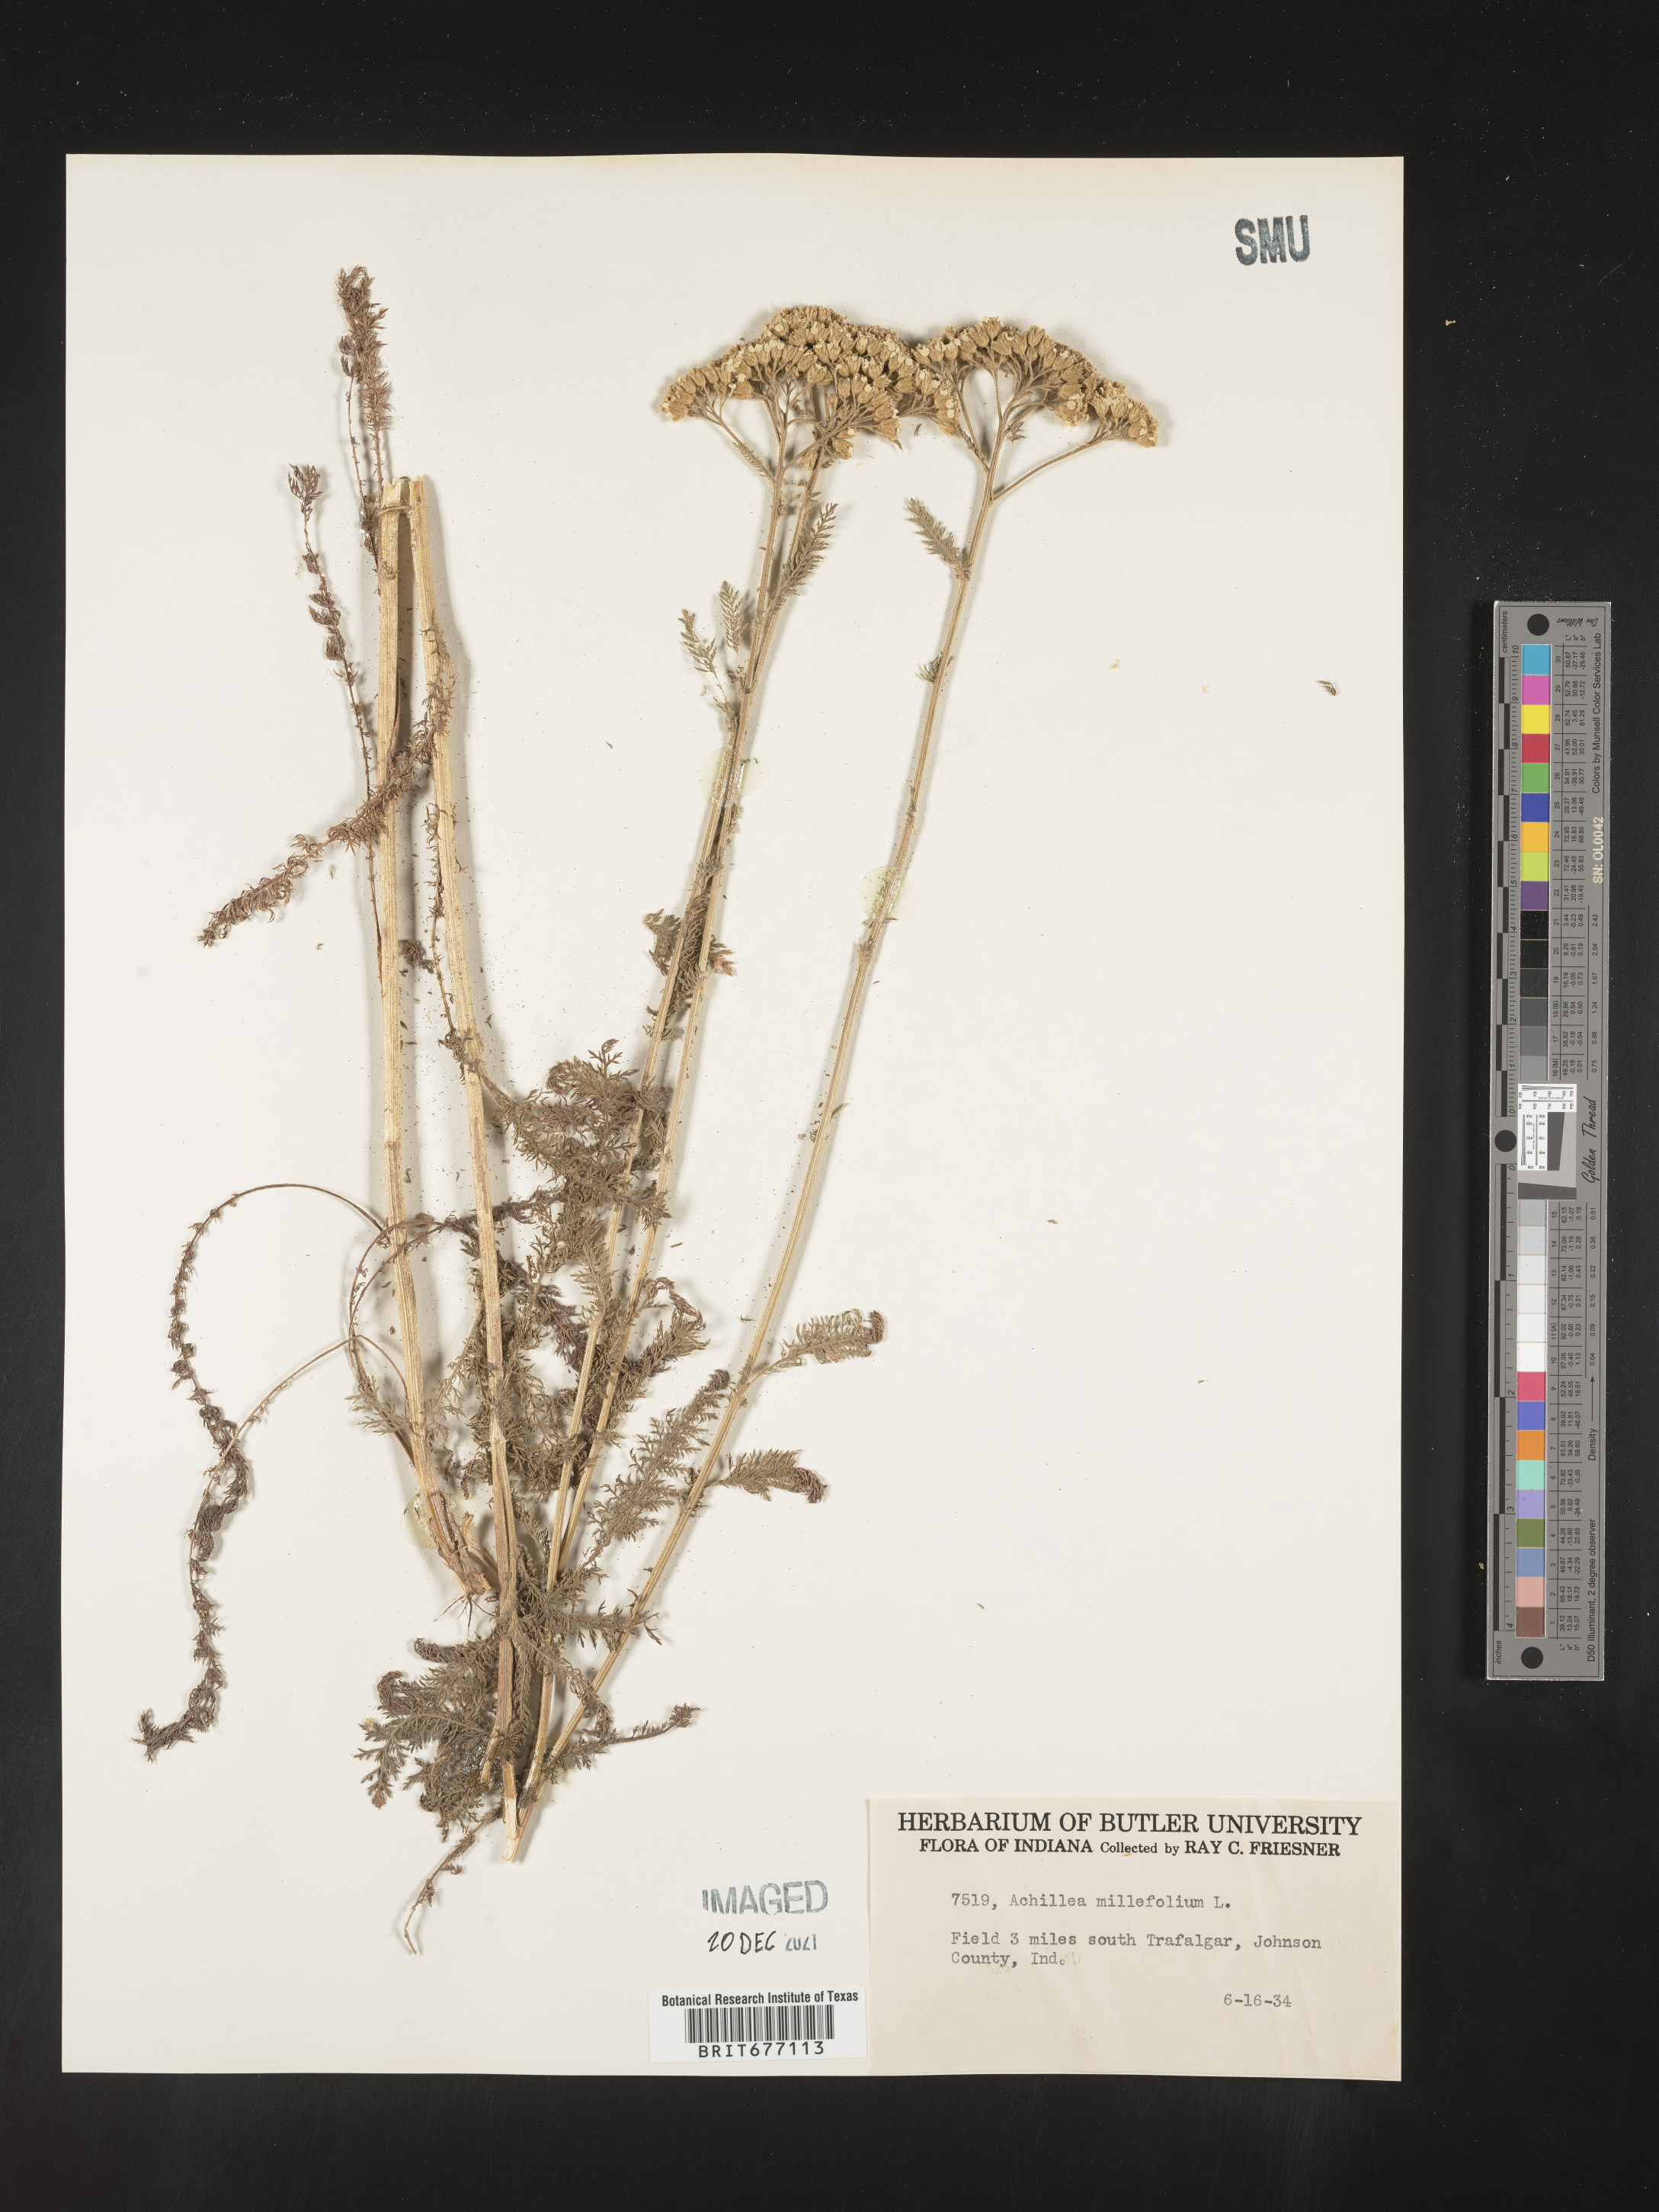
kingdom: Plantae
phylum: Tracheophyta
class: Magnoliopsida
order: Asterales
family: Asteraceae
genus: Achillea
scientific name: Achillea millefolium
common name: Yarrow
